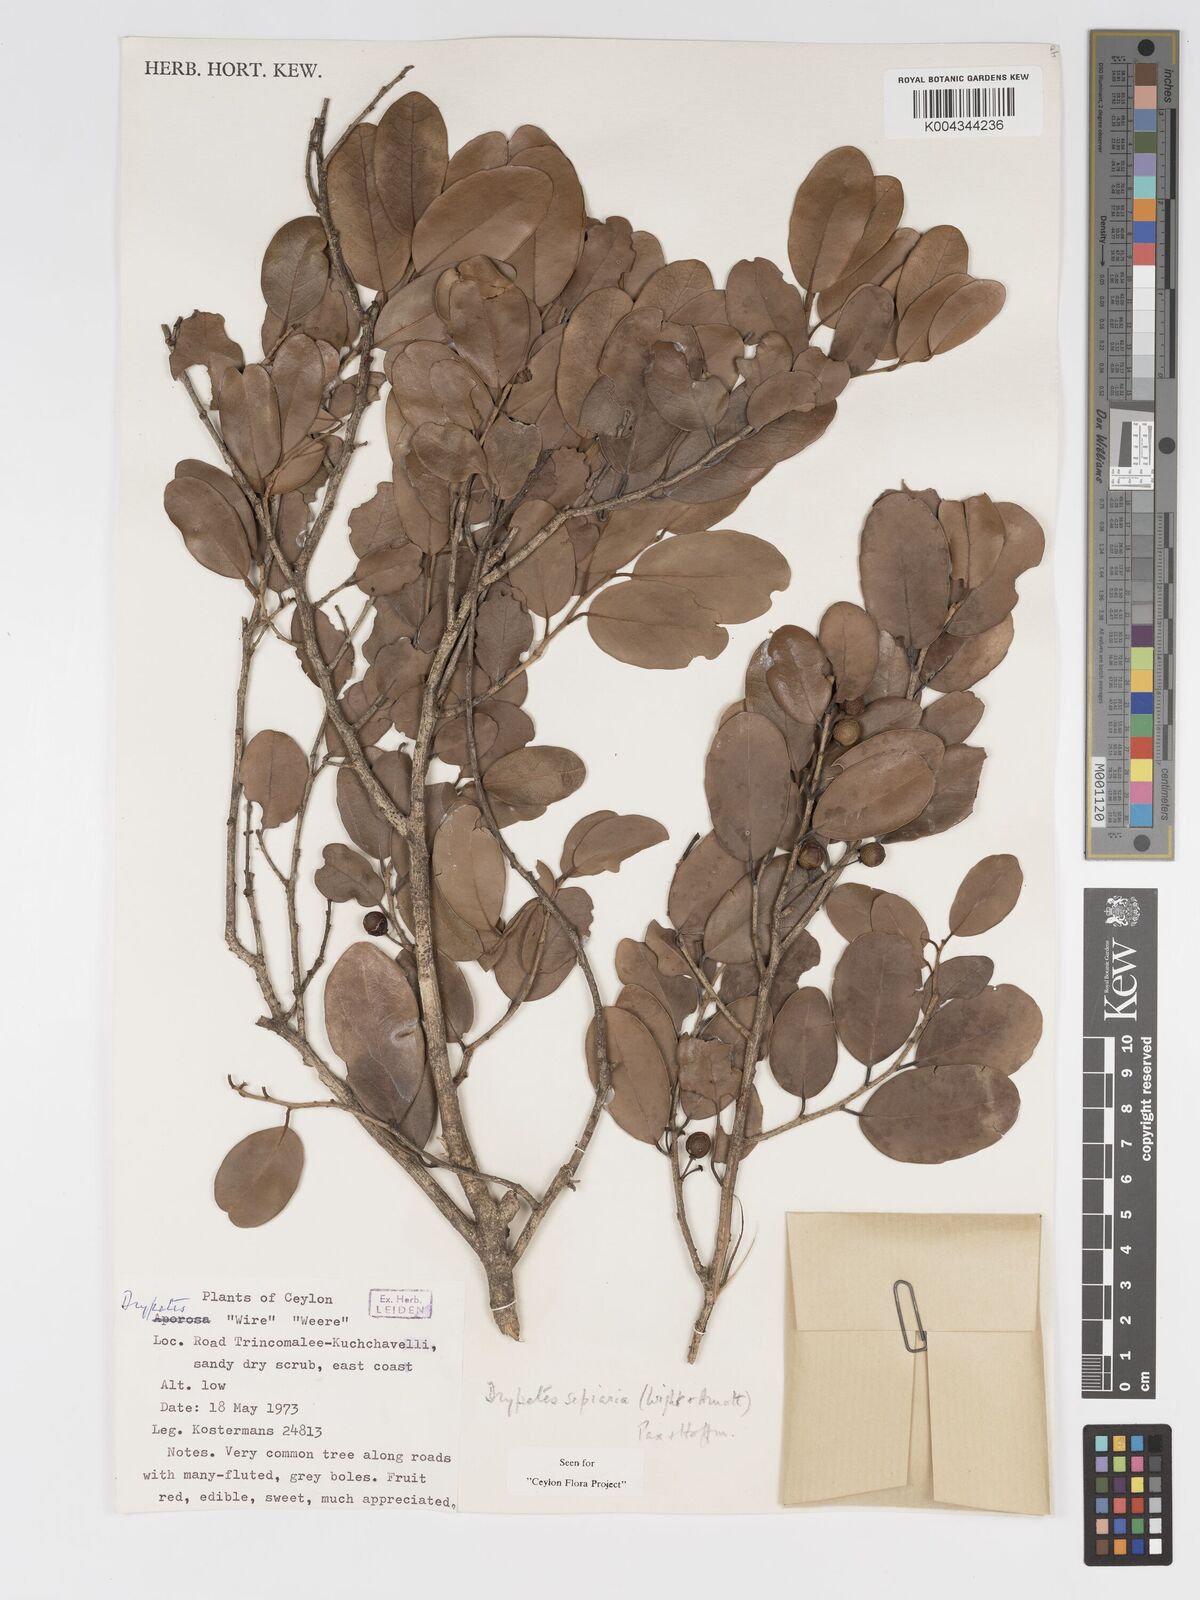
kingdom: Plantae
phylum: Tracheophyta
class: Magnoliopsida
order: Malpighiales
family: Putranjivaceae
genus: Drypetes
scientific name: Drypetes sepiaria
